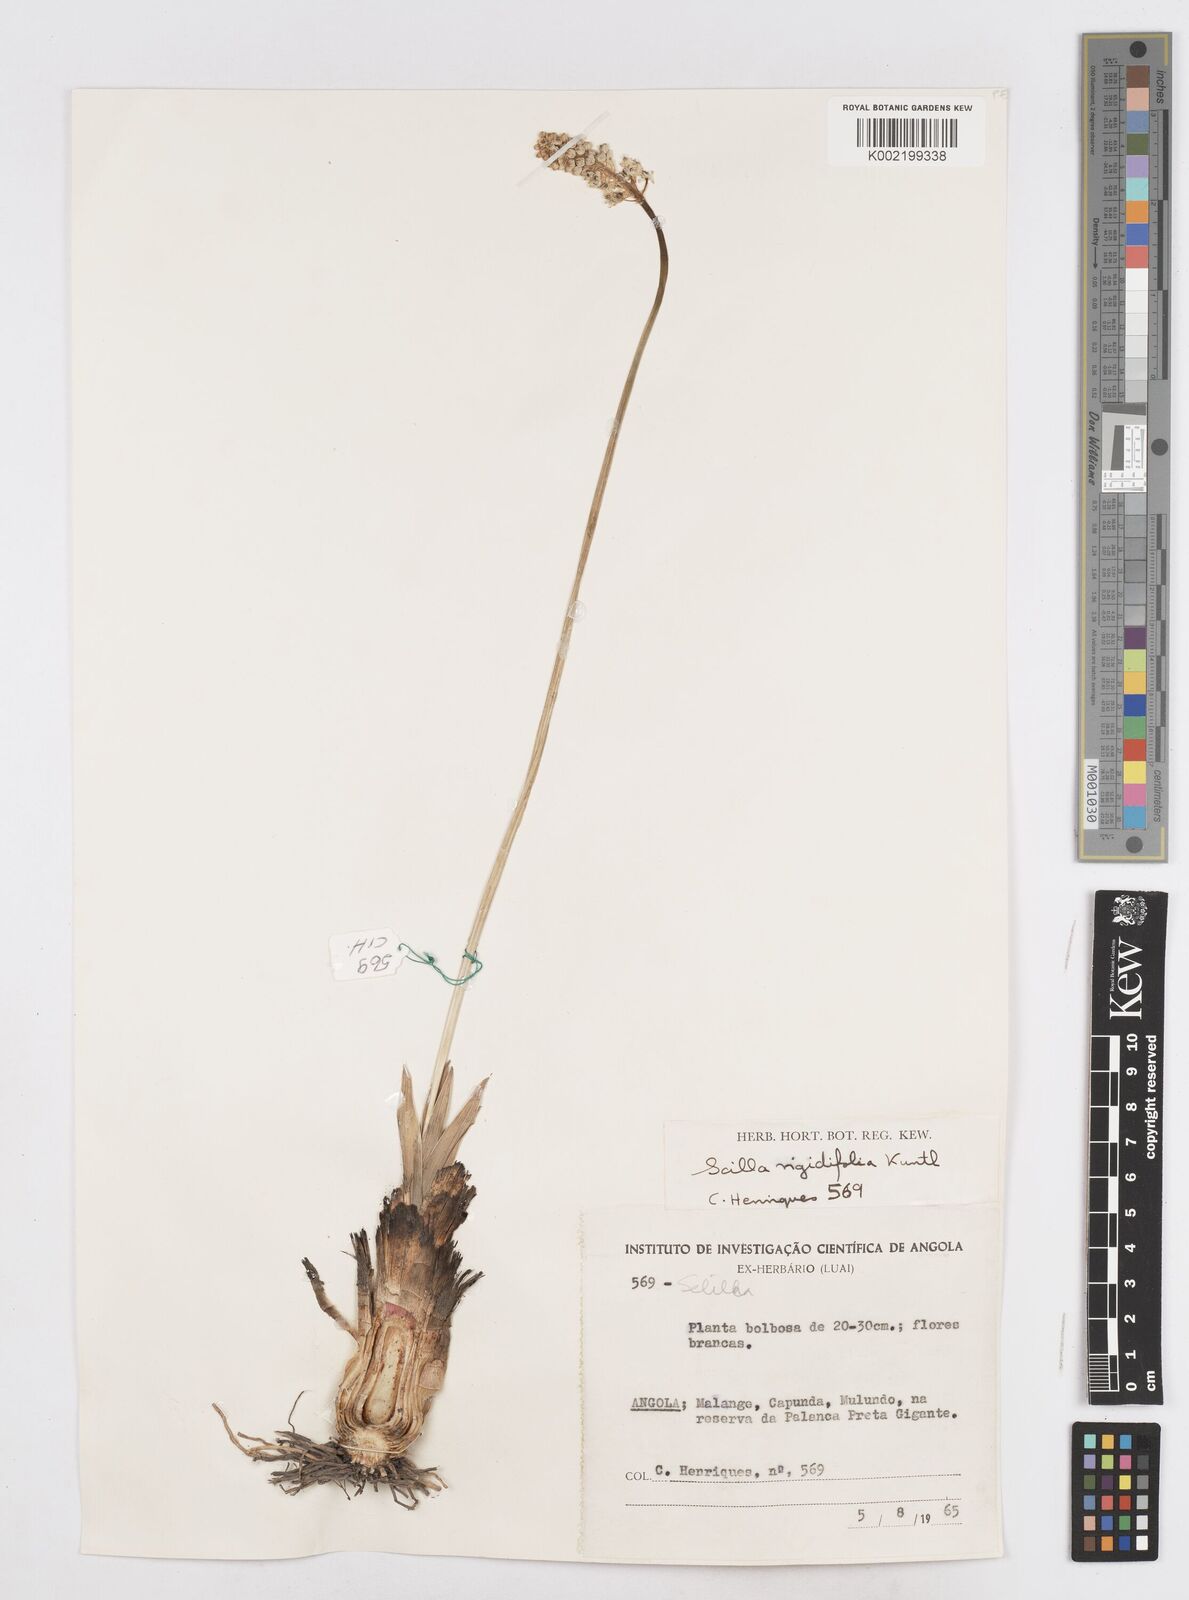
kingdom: Plantae
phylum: Tracheophyta
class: Liliopsida
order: Asparagales
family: Asparagaceae
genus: Schizocarphus
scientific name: Schizocarphus nervosus
